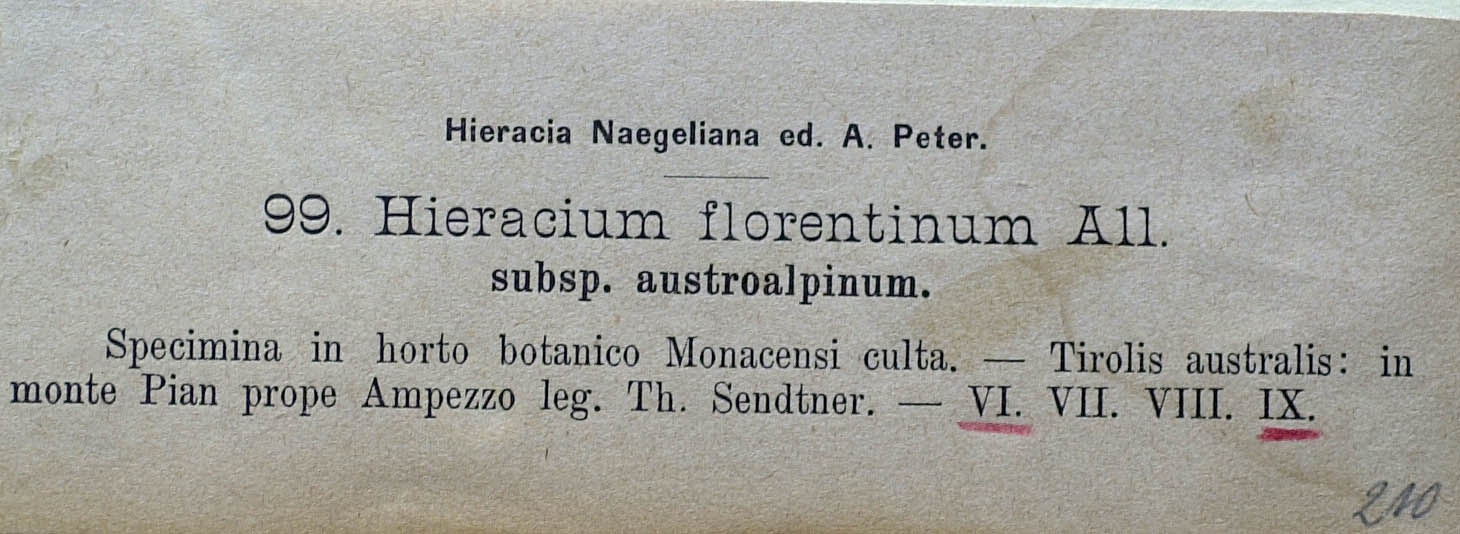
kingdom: Plantae
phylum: Tracheophyta
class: Magnoliopsida
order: Asterales
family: Asteraceae
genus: Pilosella
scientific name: Pilosella piloselloides
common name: Glaucous king-devil
